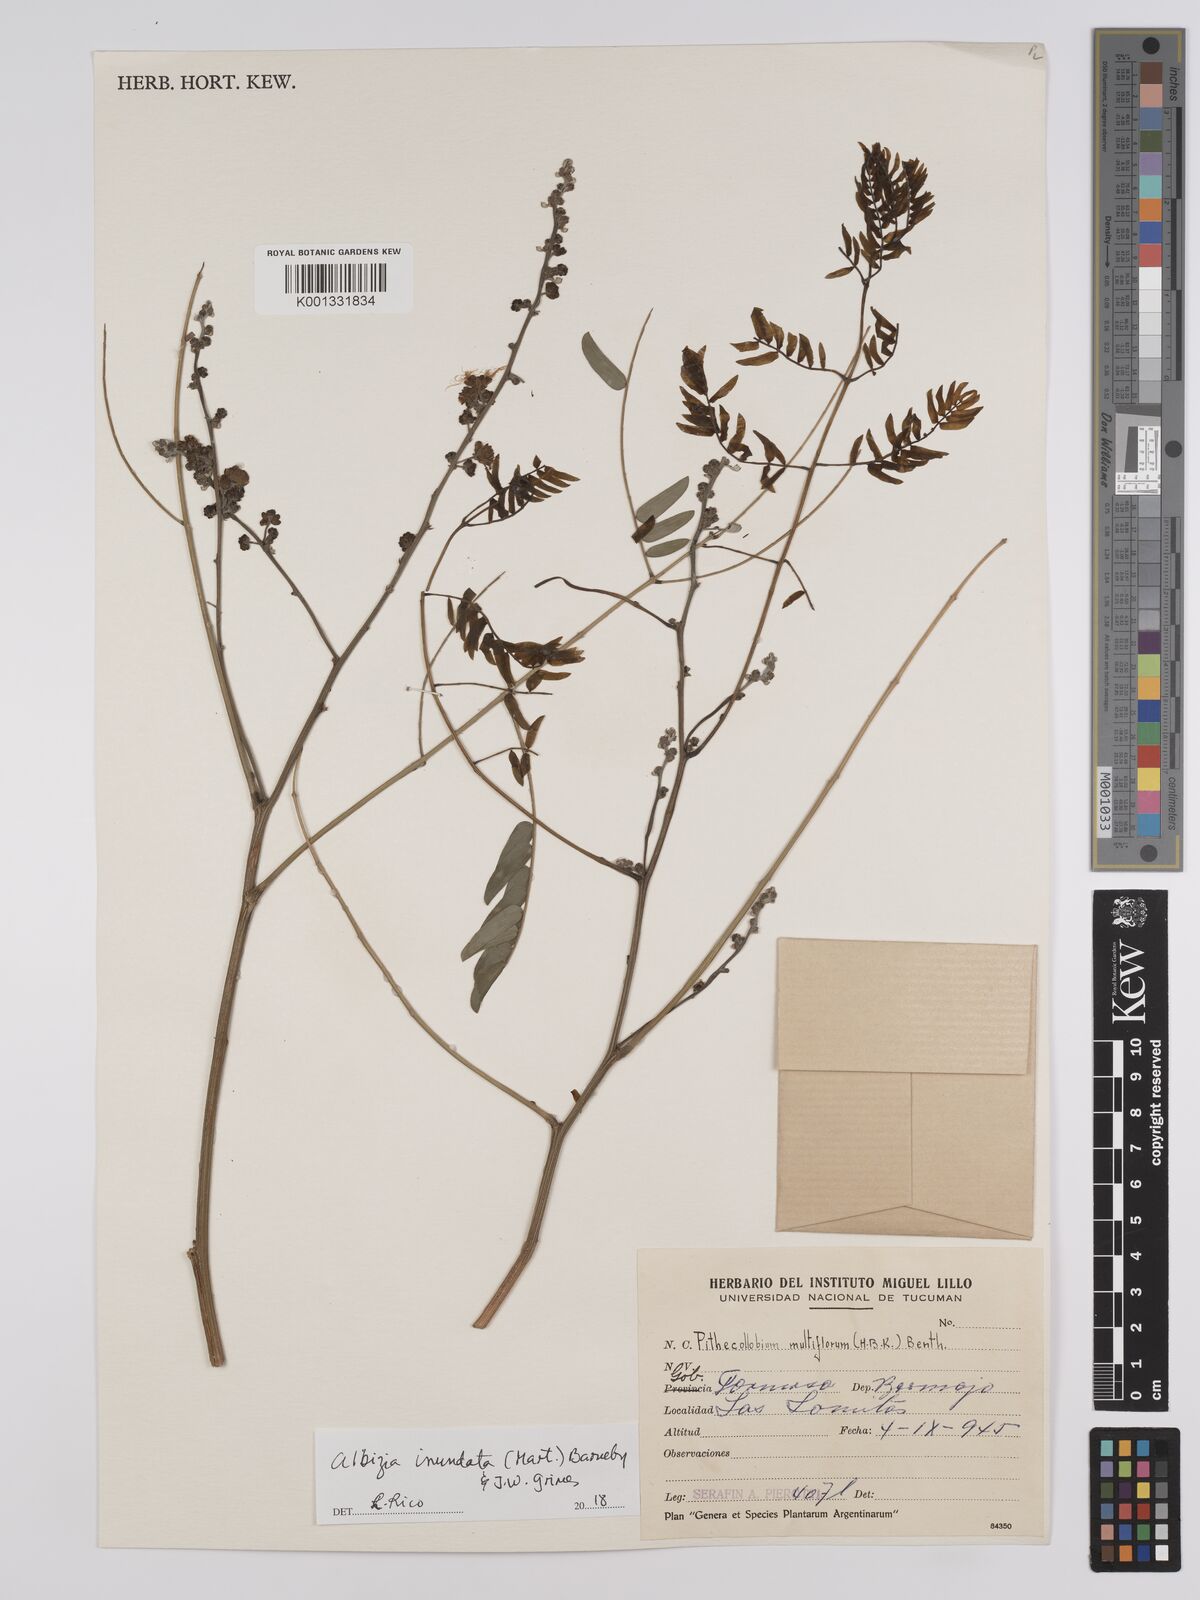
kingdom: Plantae
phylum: Tracheophyta
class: Magnoliopsida
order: Fabales
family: Fabaceae
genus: Albizia
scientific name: Albizia inundata
